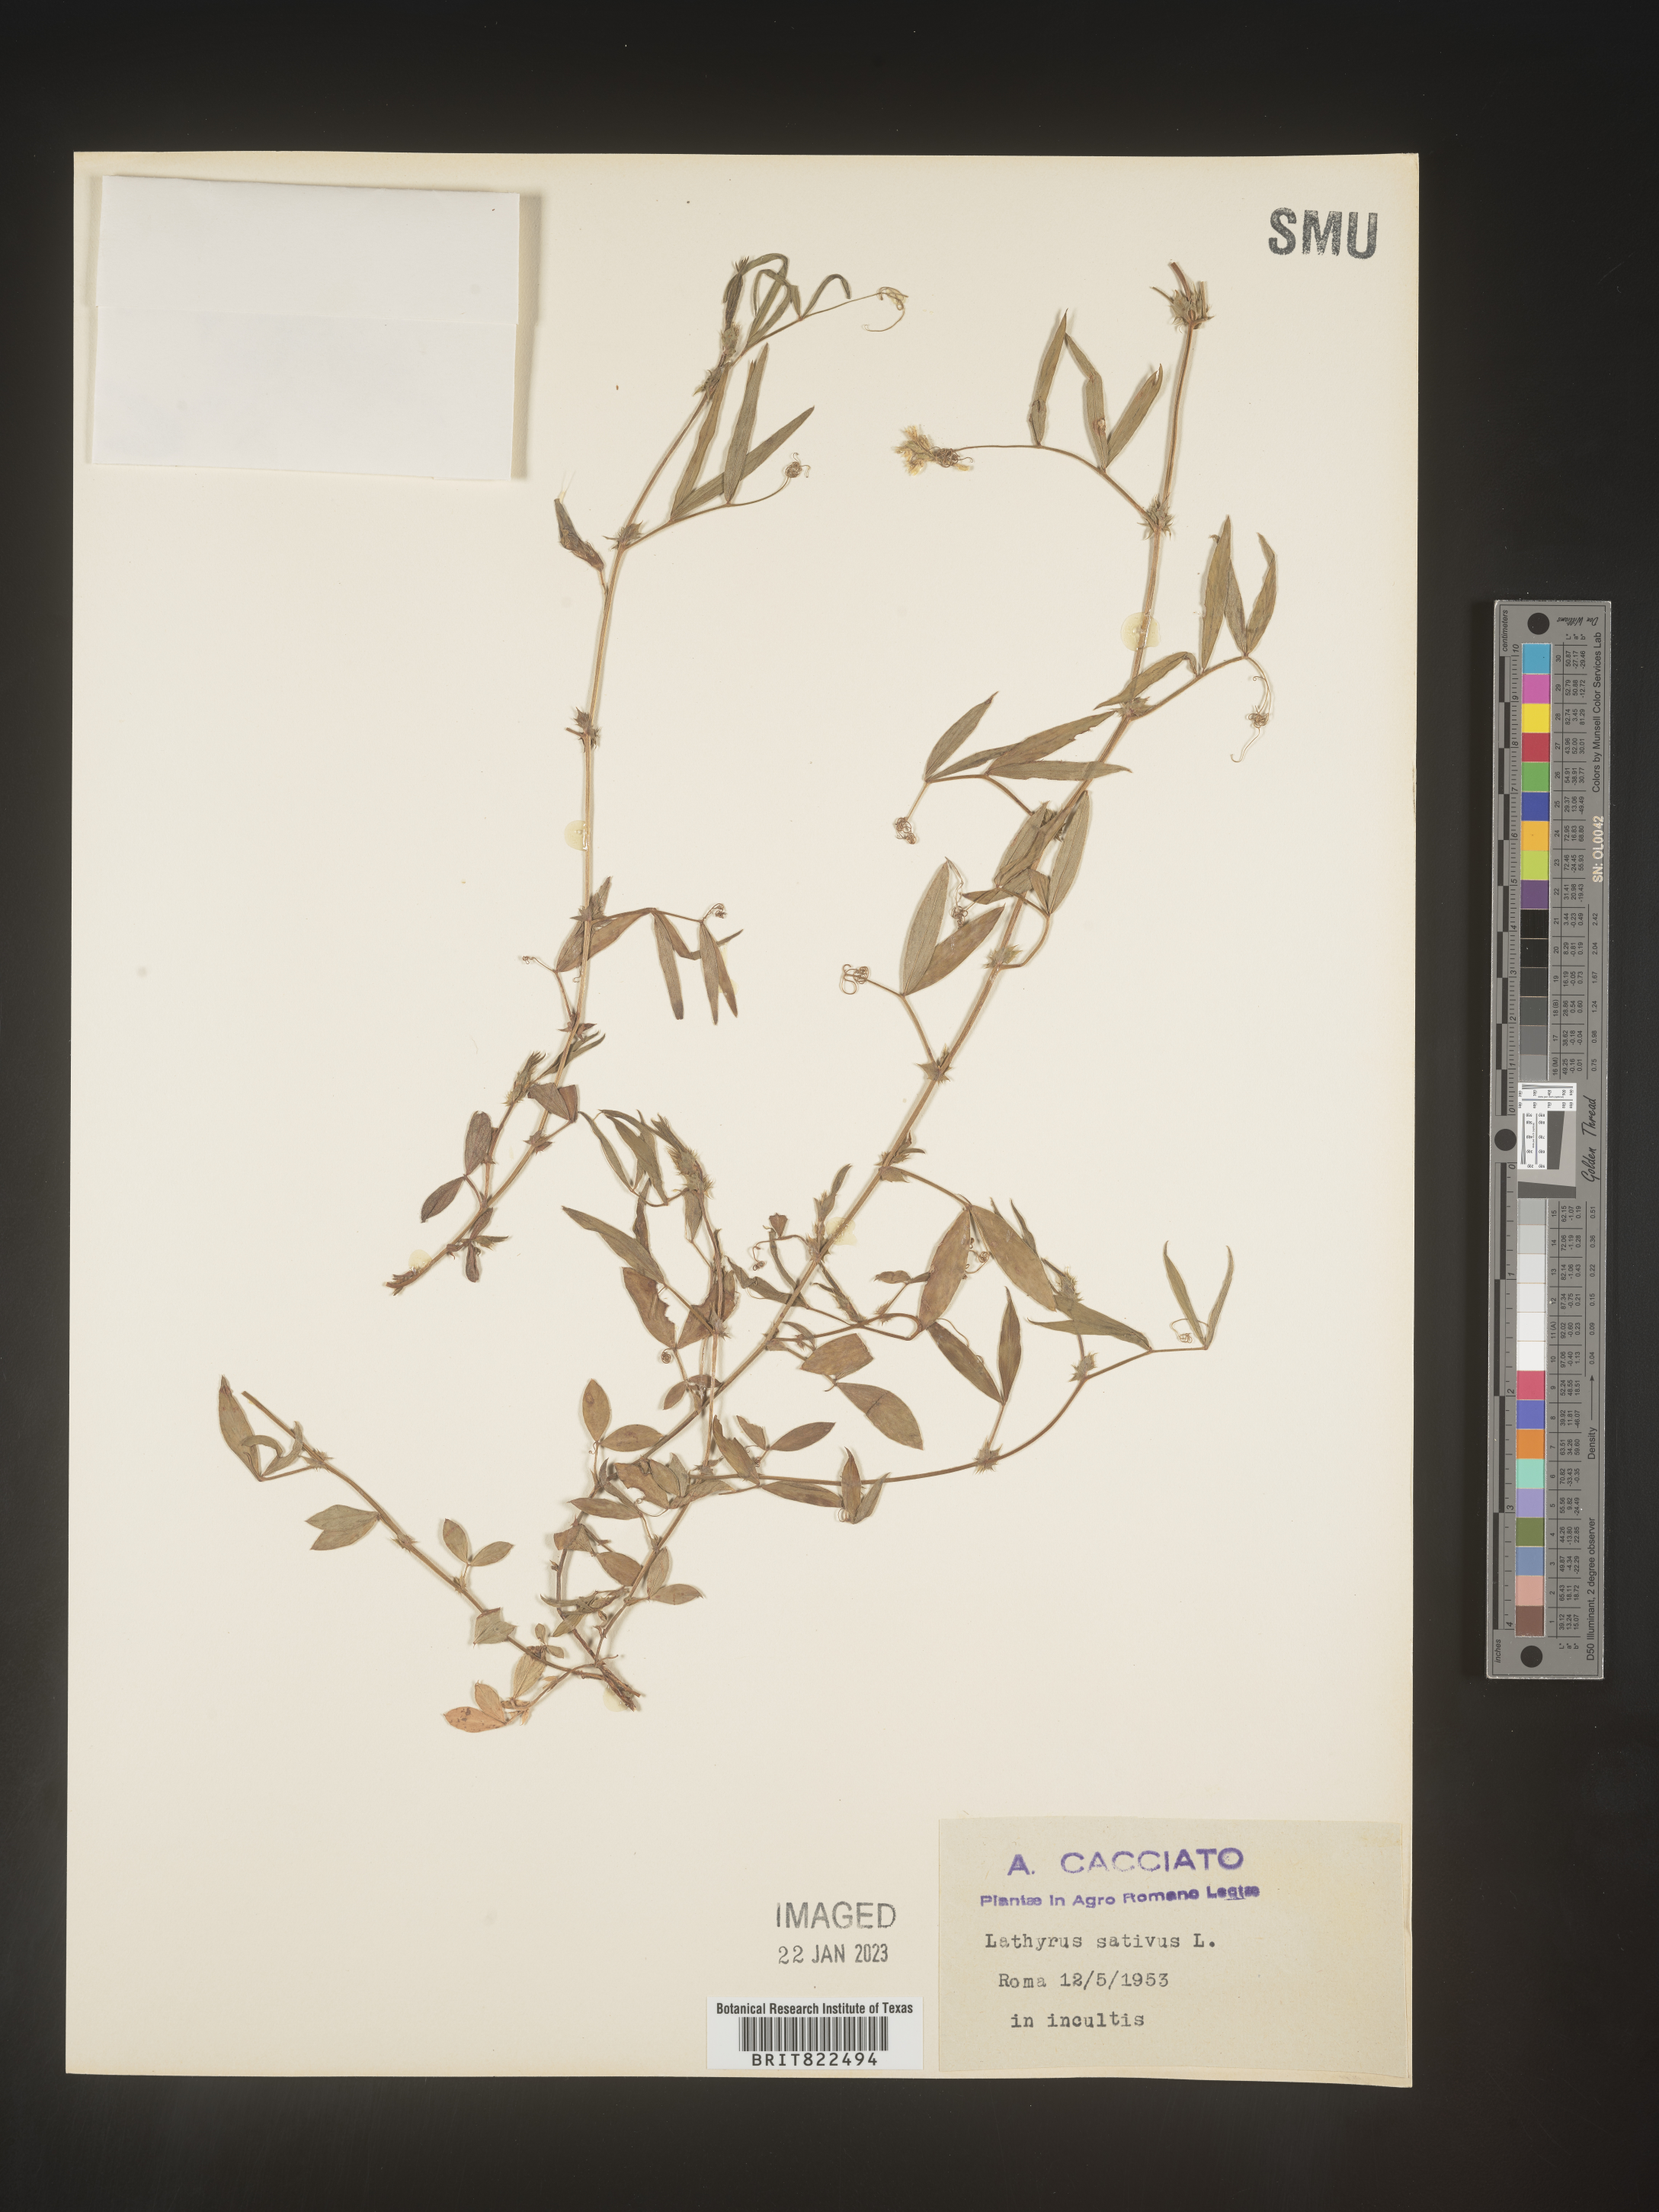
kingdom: Plantae
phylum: Tracheophyta
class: Magnoliopsida
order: Fabales
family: Fabaceae
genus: Lathyrus
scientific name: Lathyrus
